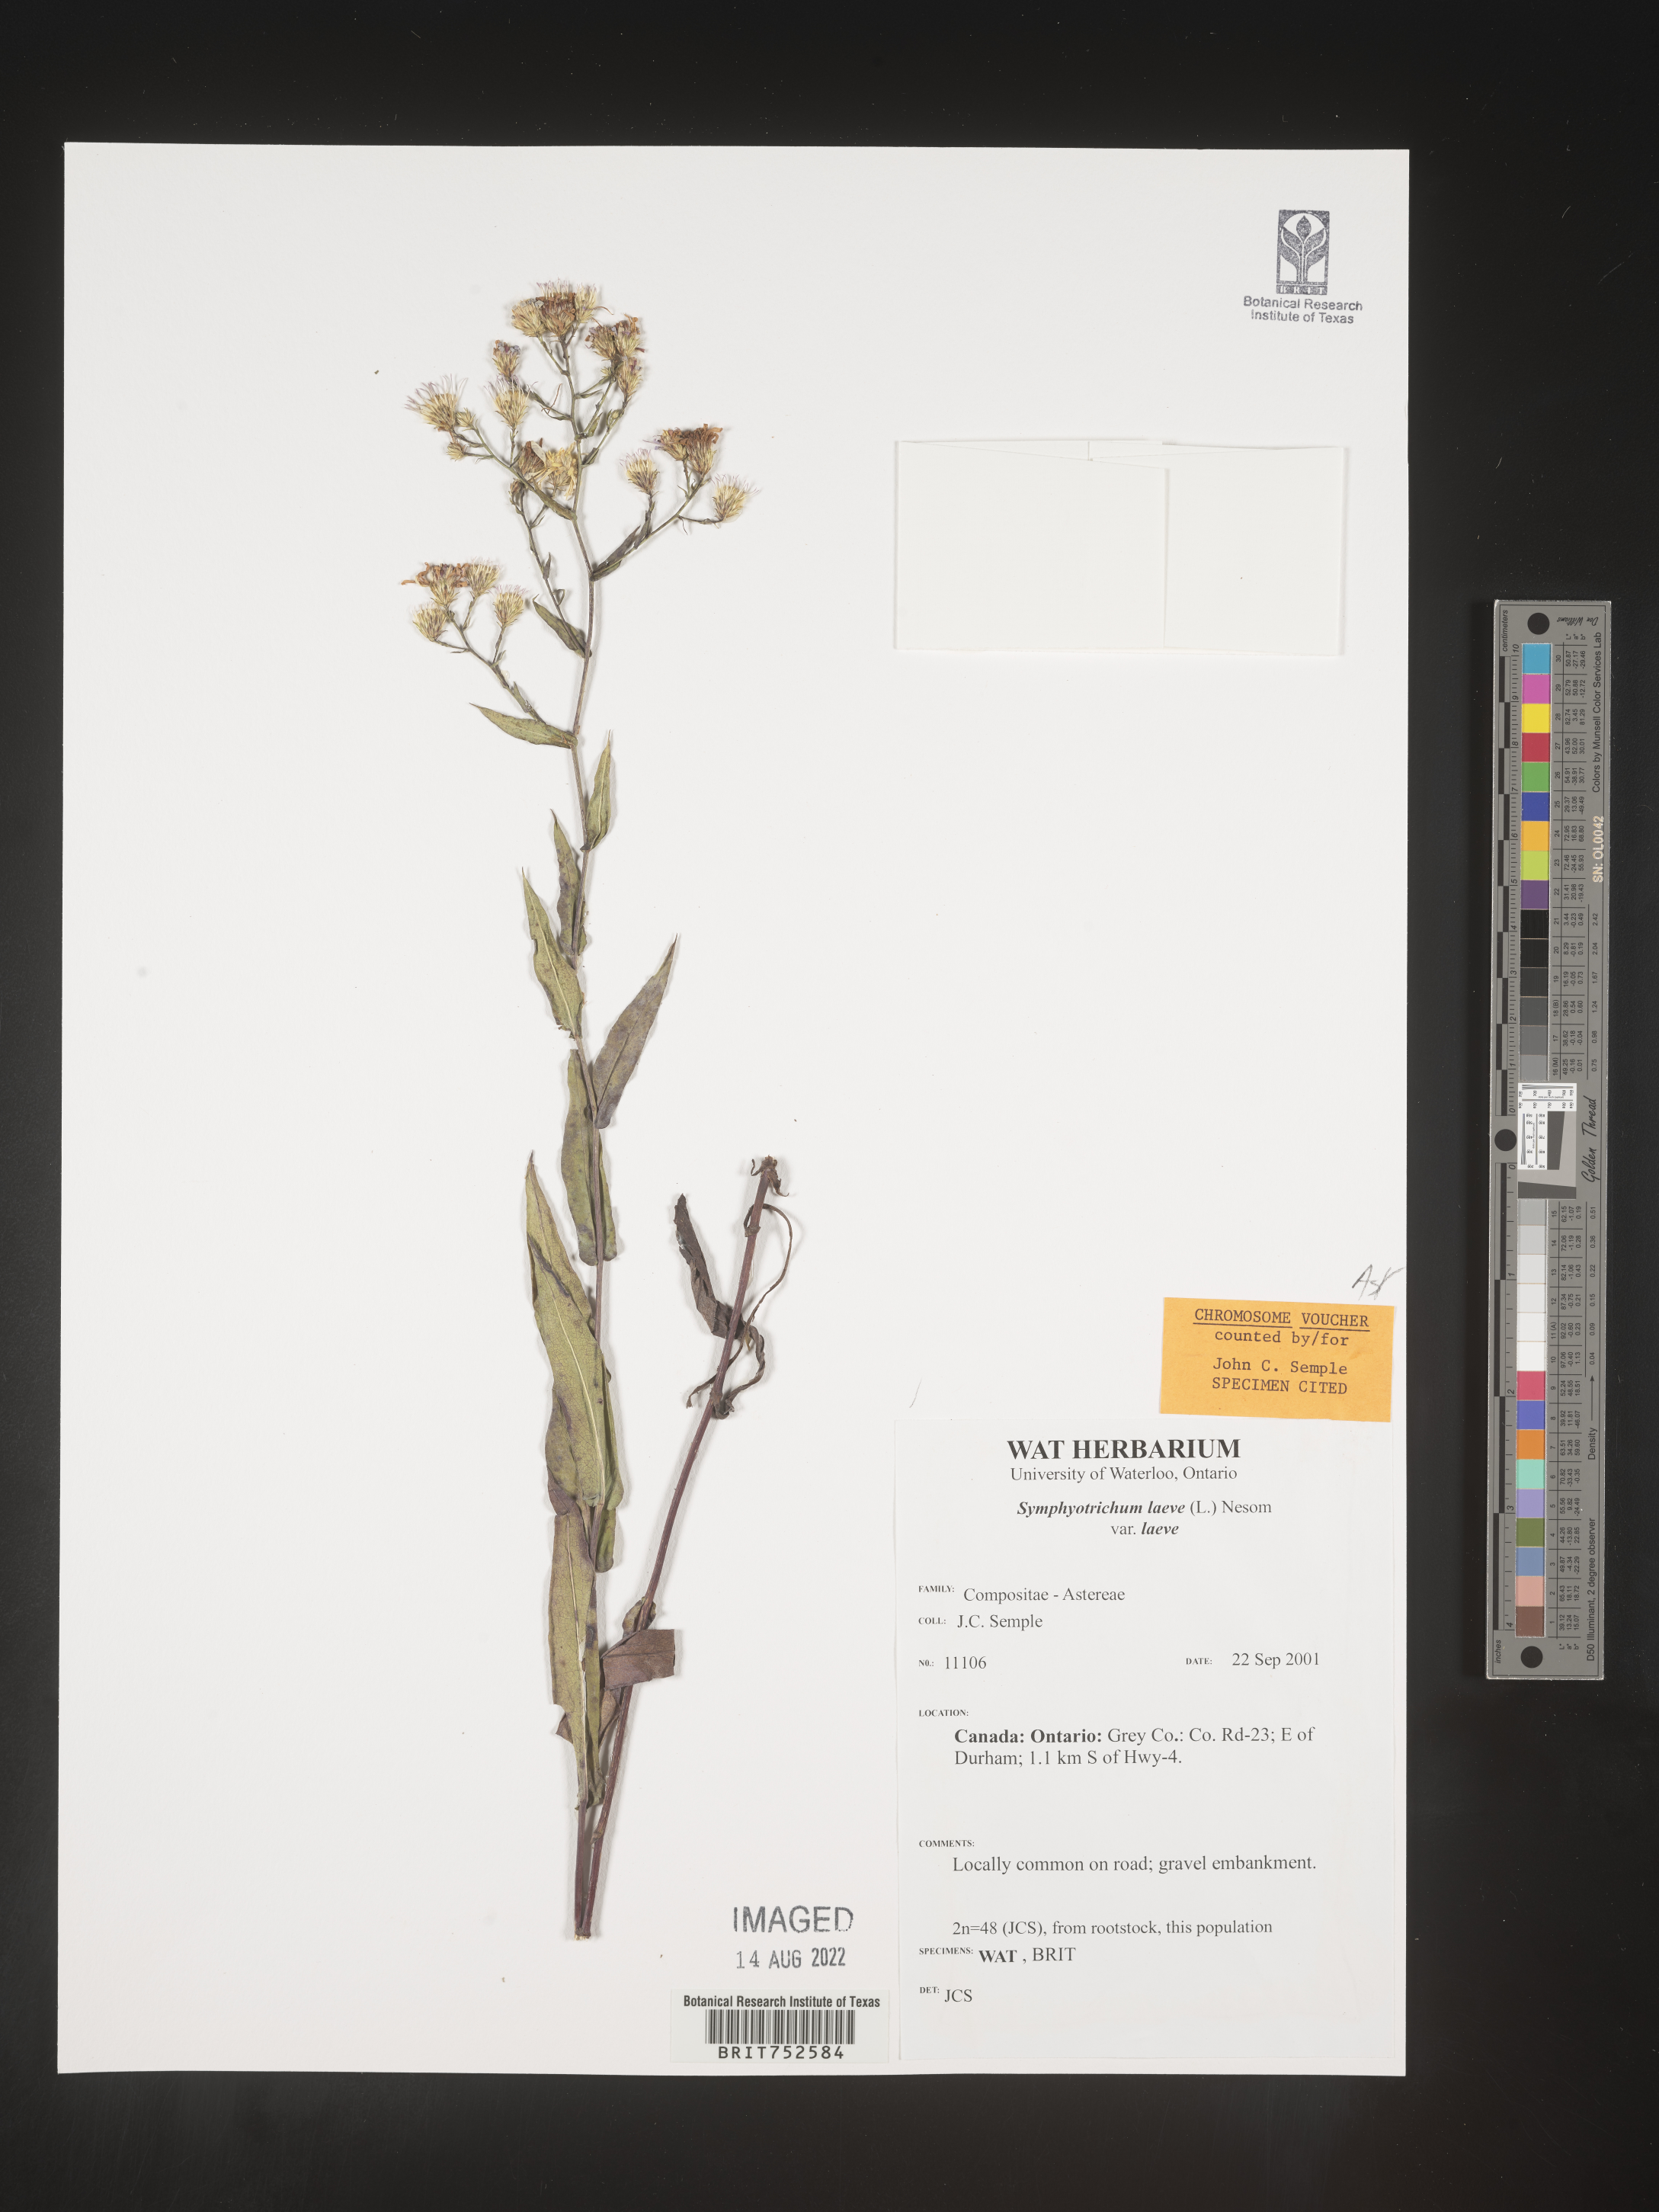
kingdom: Plantae
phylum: Tracheophyta
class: Magnoliopsida
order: Asterales
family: Asteraceae
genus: Symphyotrichum
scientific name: Symphyotrichum laeve
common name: Glaucous aster
